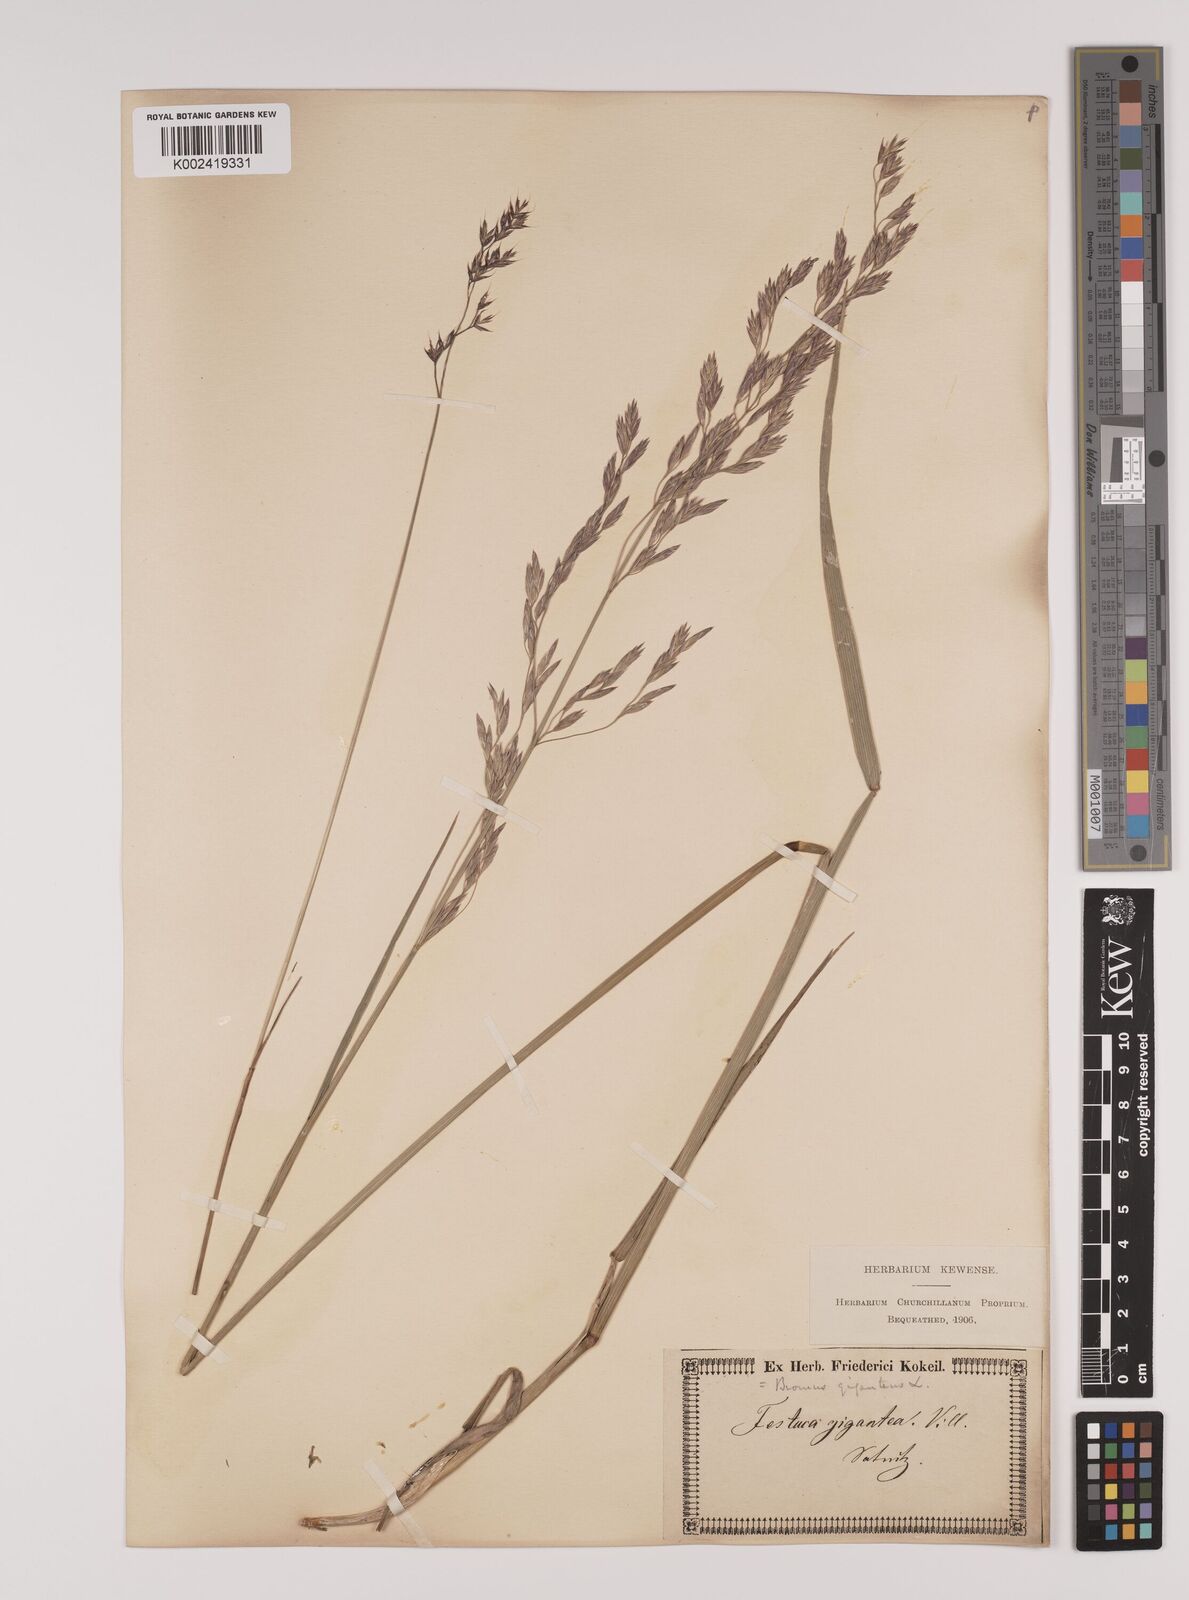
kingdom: Plantae
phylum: Tracheophyta
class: Liliopsida
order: Poales
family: Poaceae
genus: Lolium
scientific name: Lolium giganteum
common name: Giant fescue
